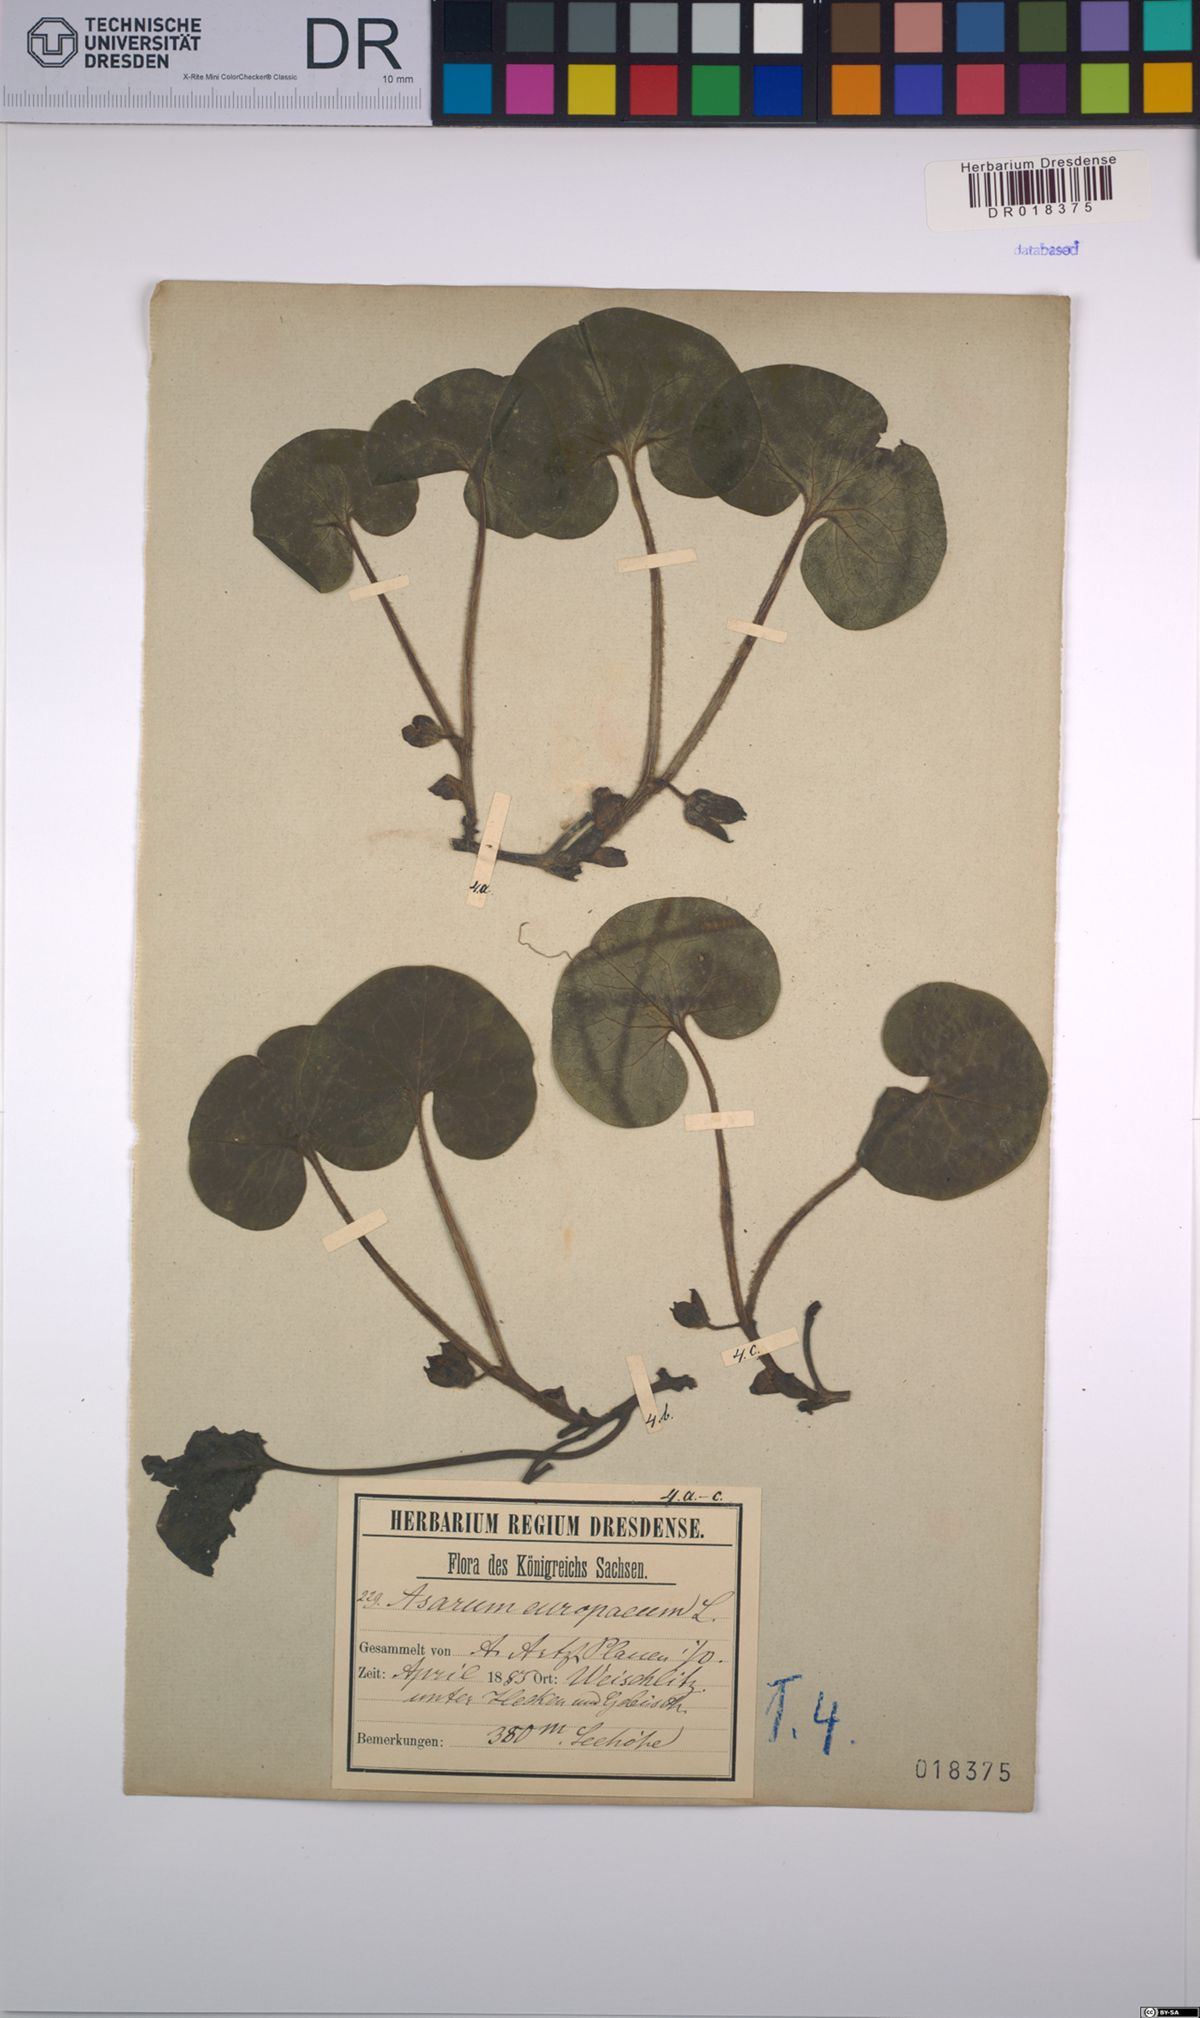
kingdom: Plantae
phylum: Tracheophyta
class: Magnoliopsida
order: Piperales
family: Aristolochiaceae
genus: Asarum
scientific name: Asarum europaeum
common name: Asarabacca
